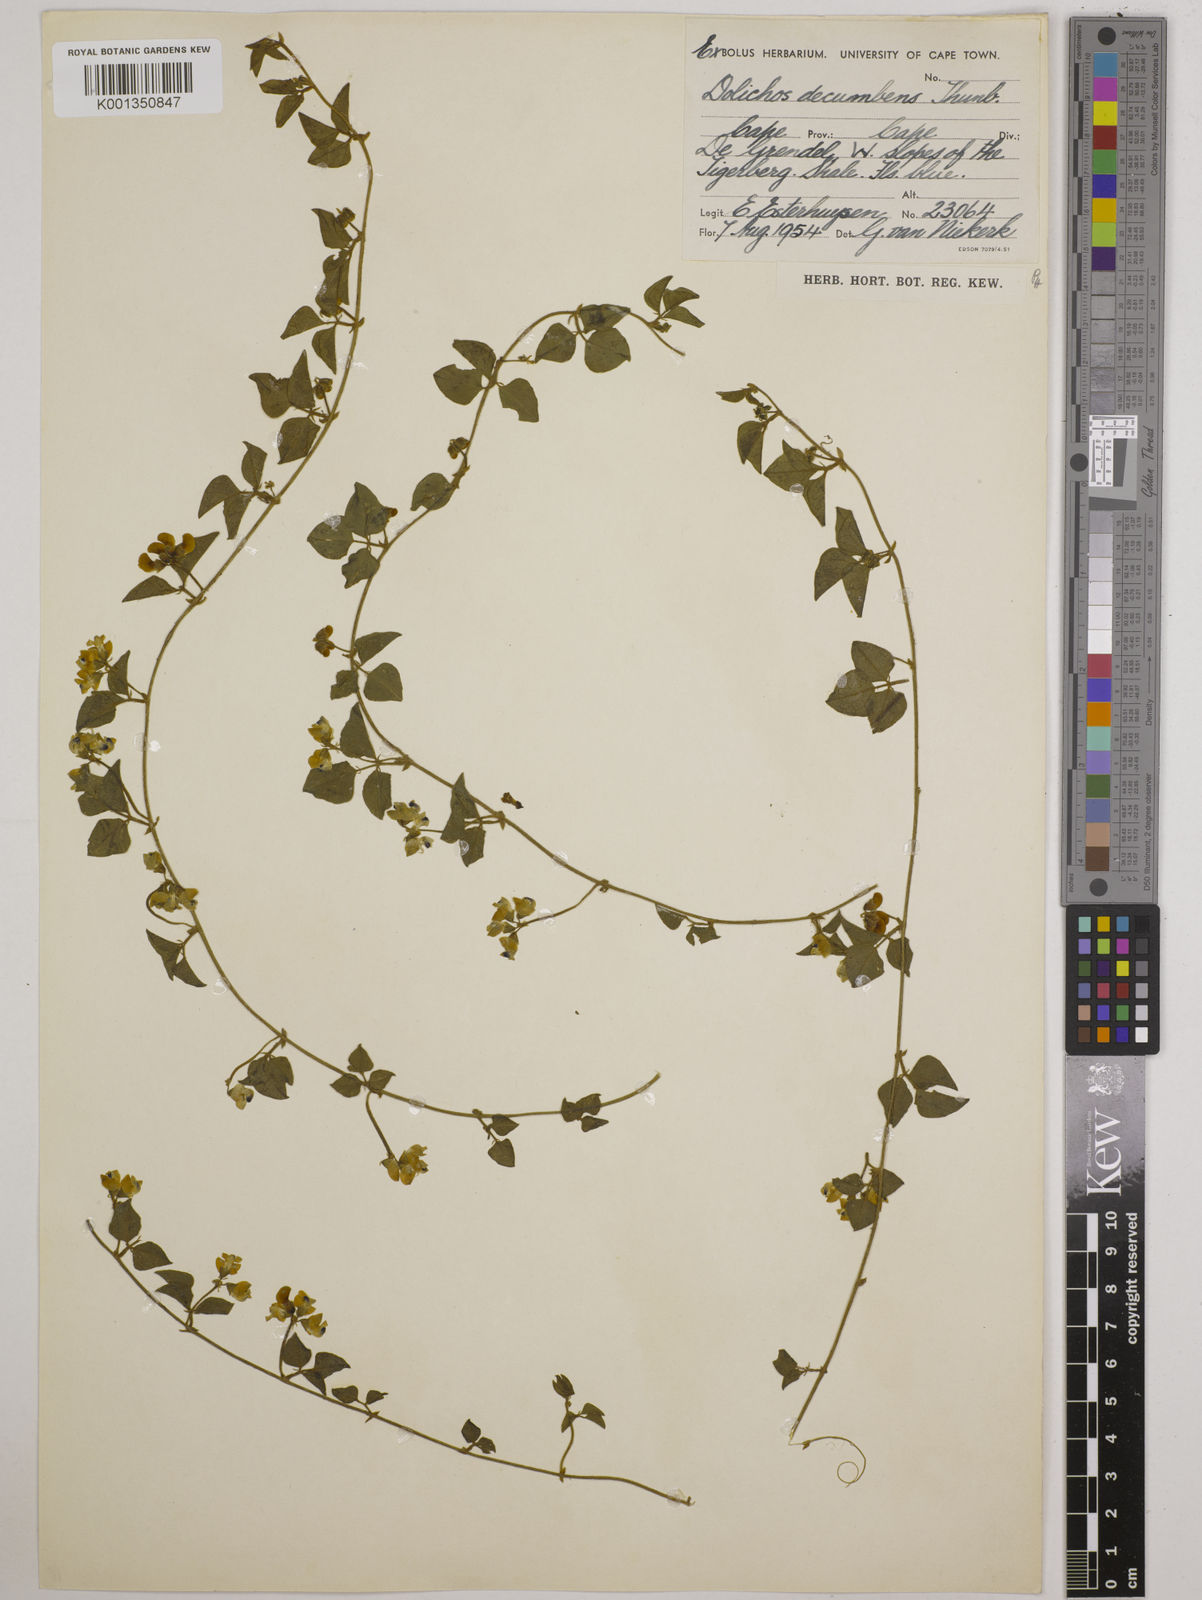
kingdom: Plantae
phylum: Tracheophyta
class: Magnoliopsida
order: Fabales
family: Fabaceae
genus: Dolichos
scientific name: Dolichos decumbens
